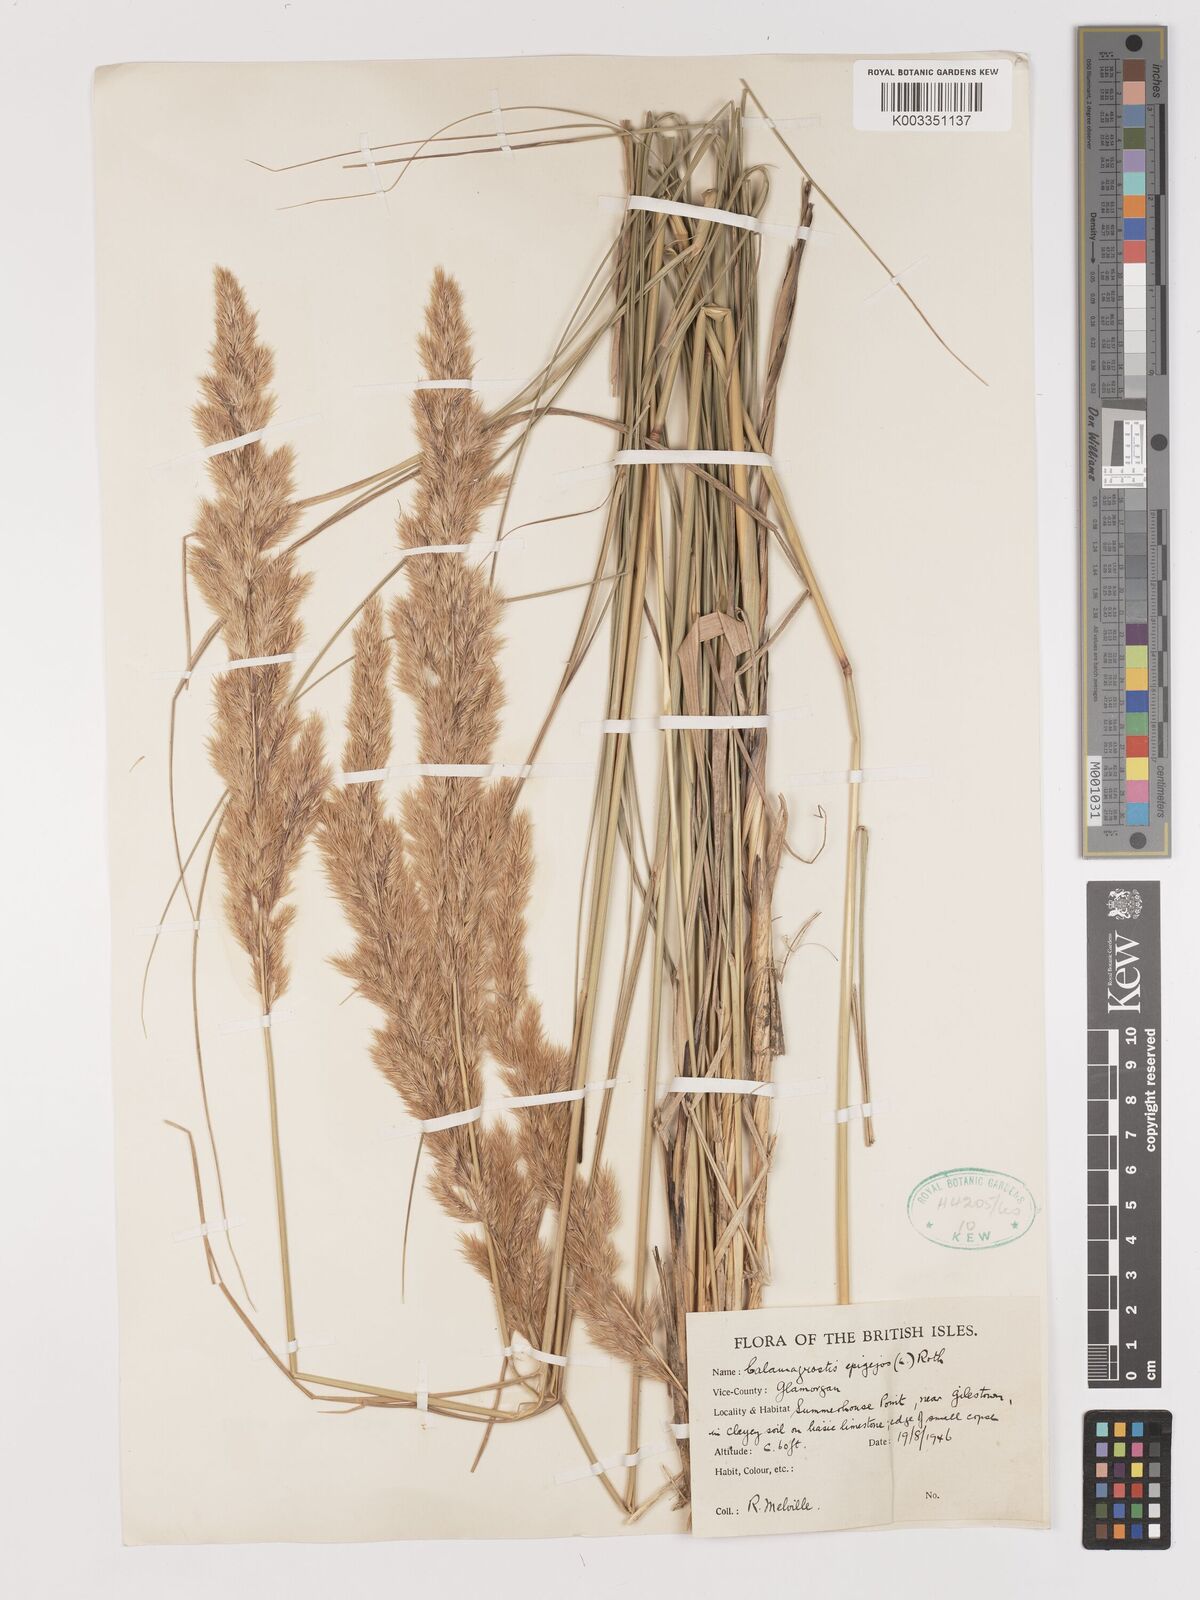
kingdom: Plantae
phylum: Tracheophyta
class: Liliopsida
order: Poales
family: Poaceae
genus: Calamagrostis
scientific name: Calamagrostis
